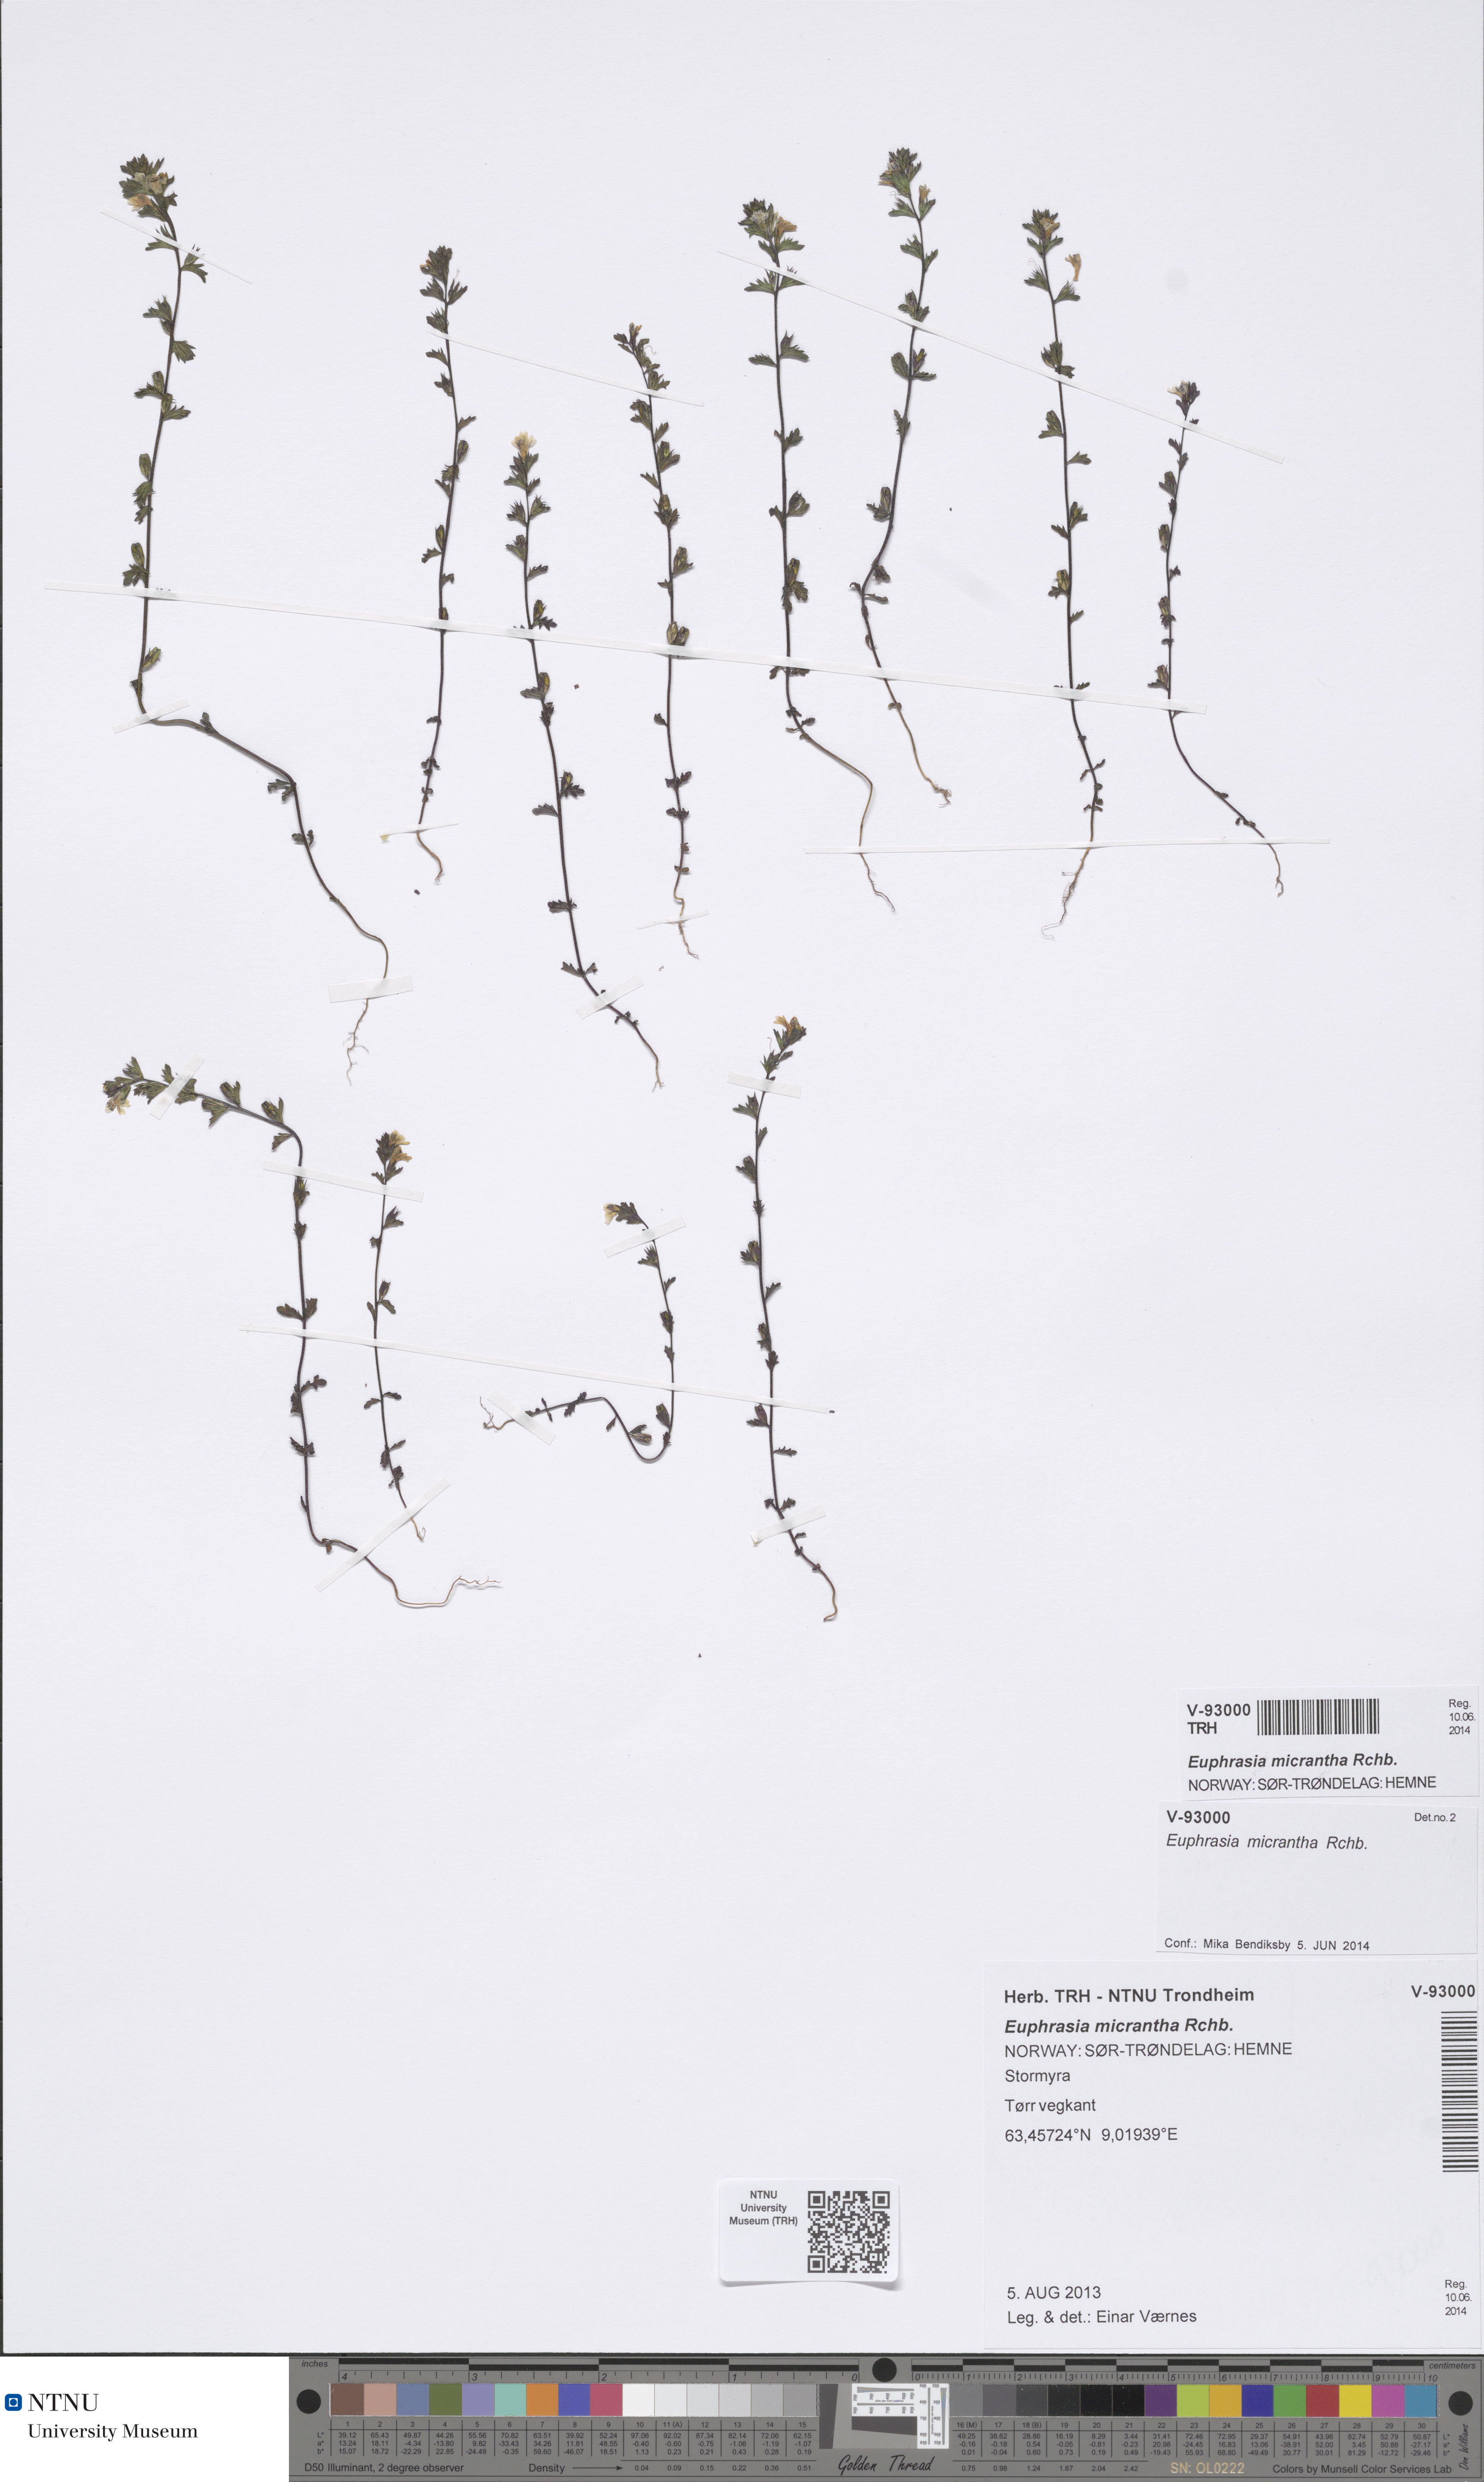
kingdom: Plantae
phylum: Tracheophyta
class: Magnoliopsida
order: Lamiales
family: Orobanchaceae
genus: Euphrasia
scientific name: Euphrasia micrantha
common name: Northern eyebright
